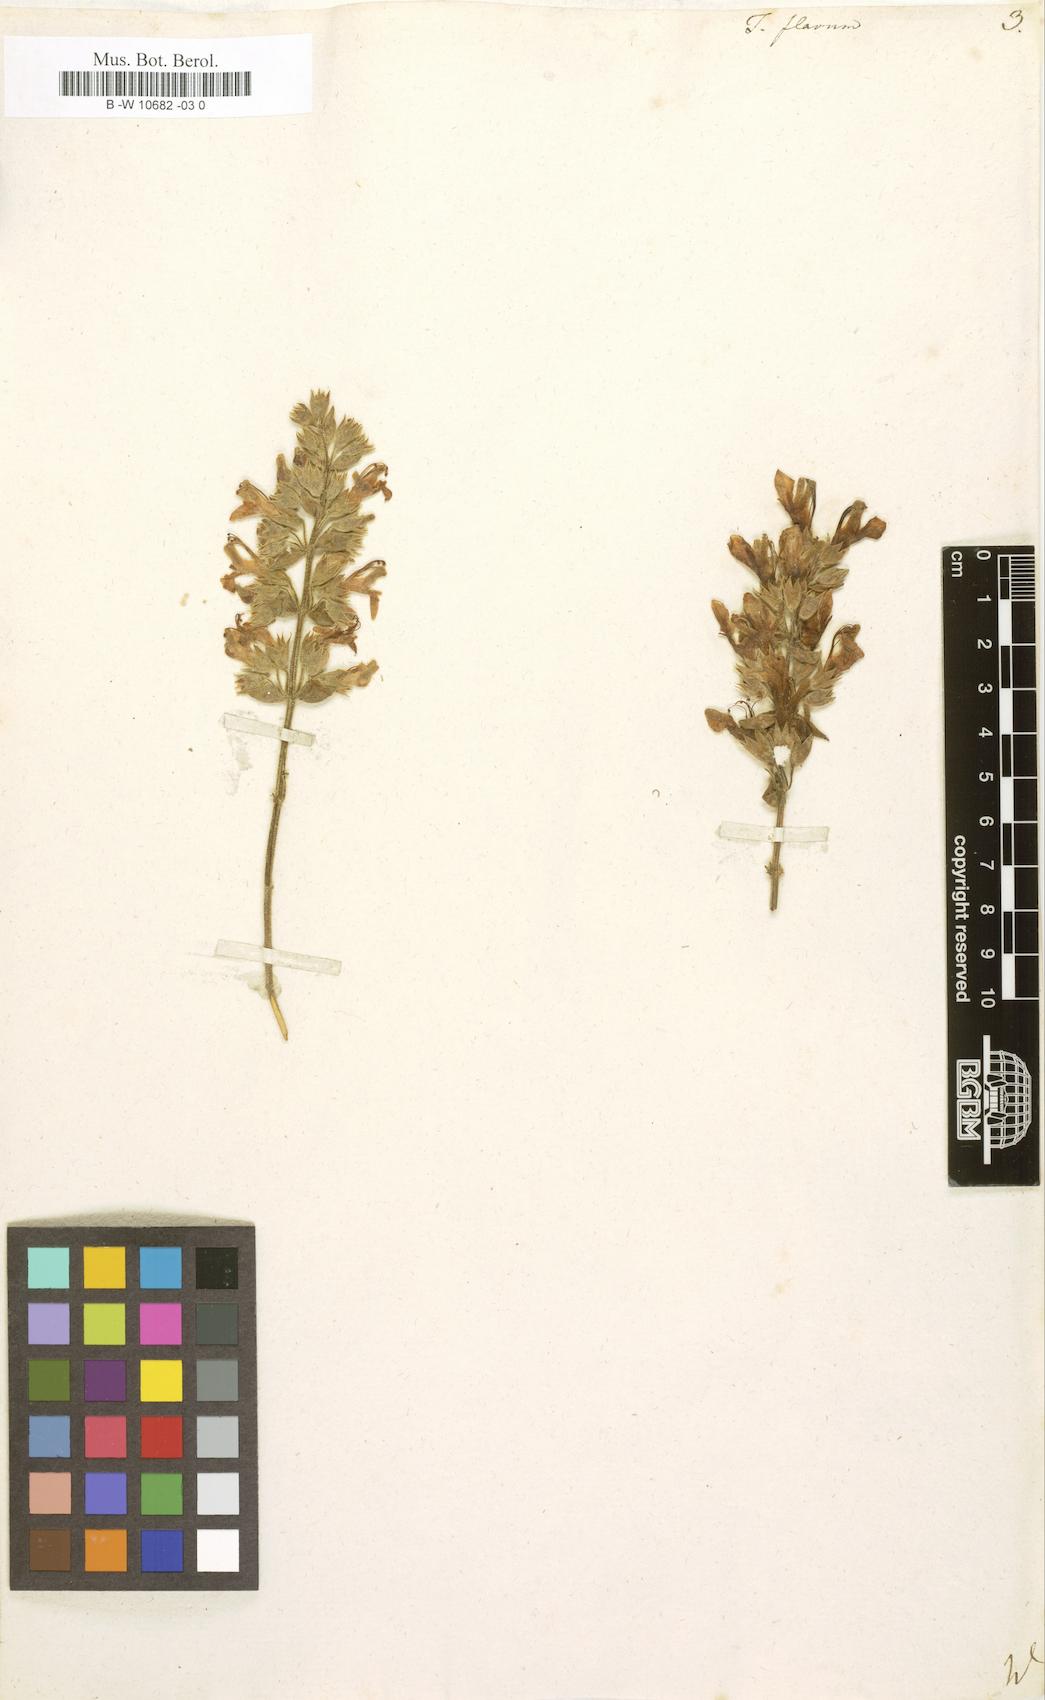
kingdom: Plantae
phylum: Tracheophyta
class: Magnoliopsida
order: Lamiales
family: Lamiaceae
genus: Teucrium
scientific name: Teucrium flavum
